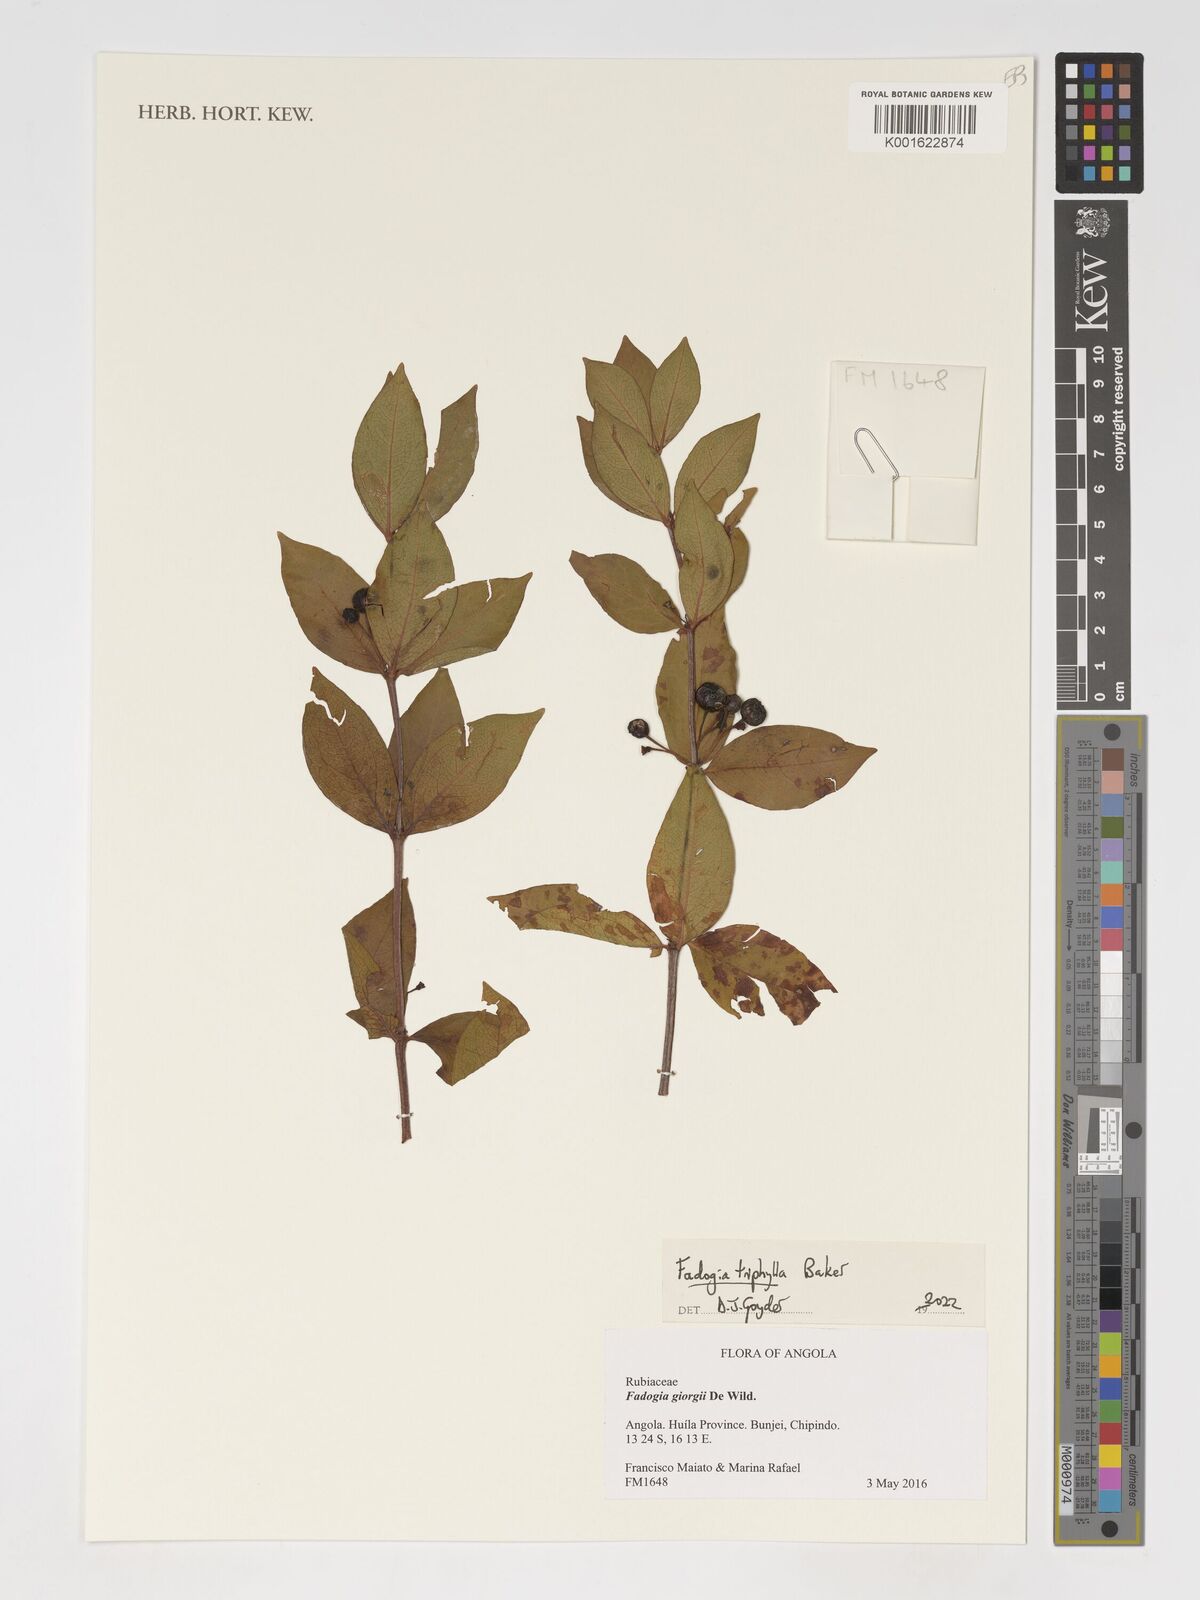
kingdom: Plantae
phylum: Tracheophyta
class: Magnoliopsida
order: Gentianales
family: Rubiaceae
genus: Fadogia
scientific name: Fadogia triphylla
